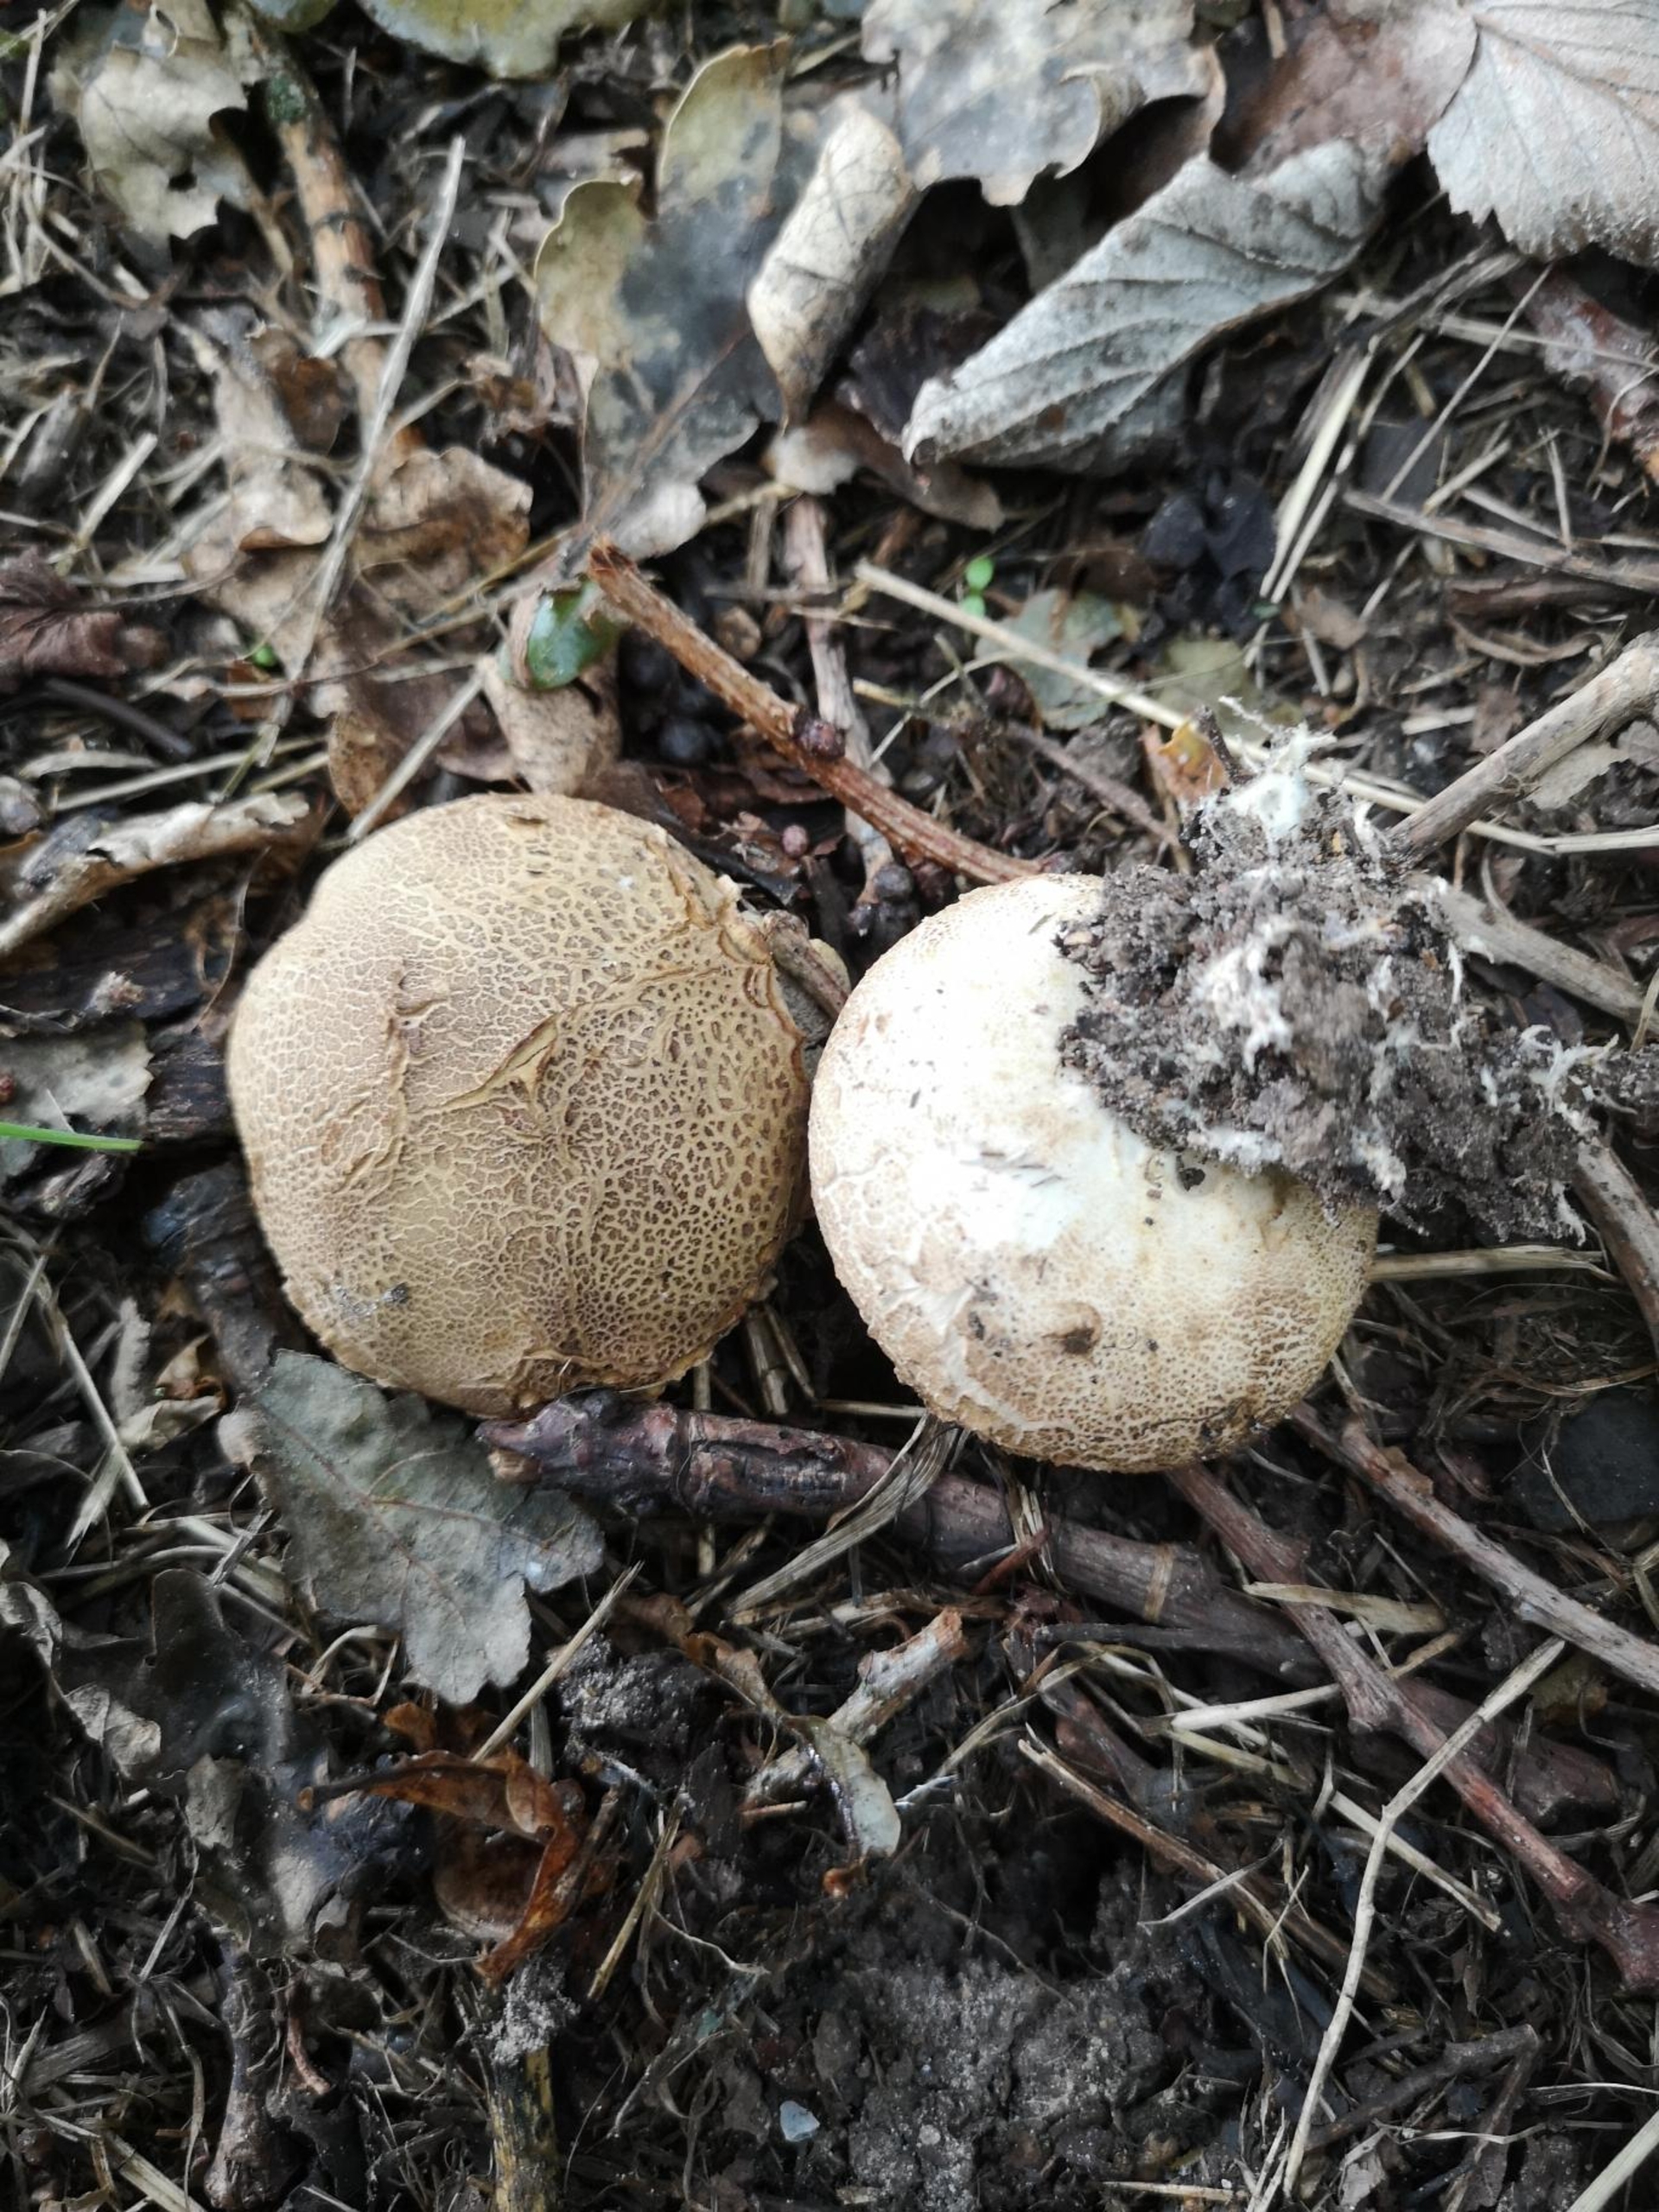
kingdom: Fungi
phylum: Basidiomycota
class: Agaricomycetes
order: Boletales
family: Sclerodermataceae
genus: Scleroderma
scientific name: Scleroderma citrinum
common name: Almindelig bruskbold
